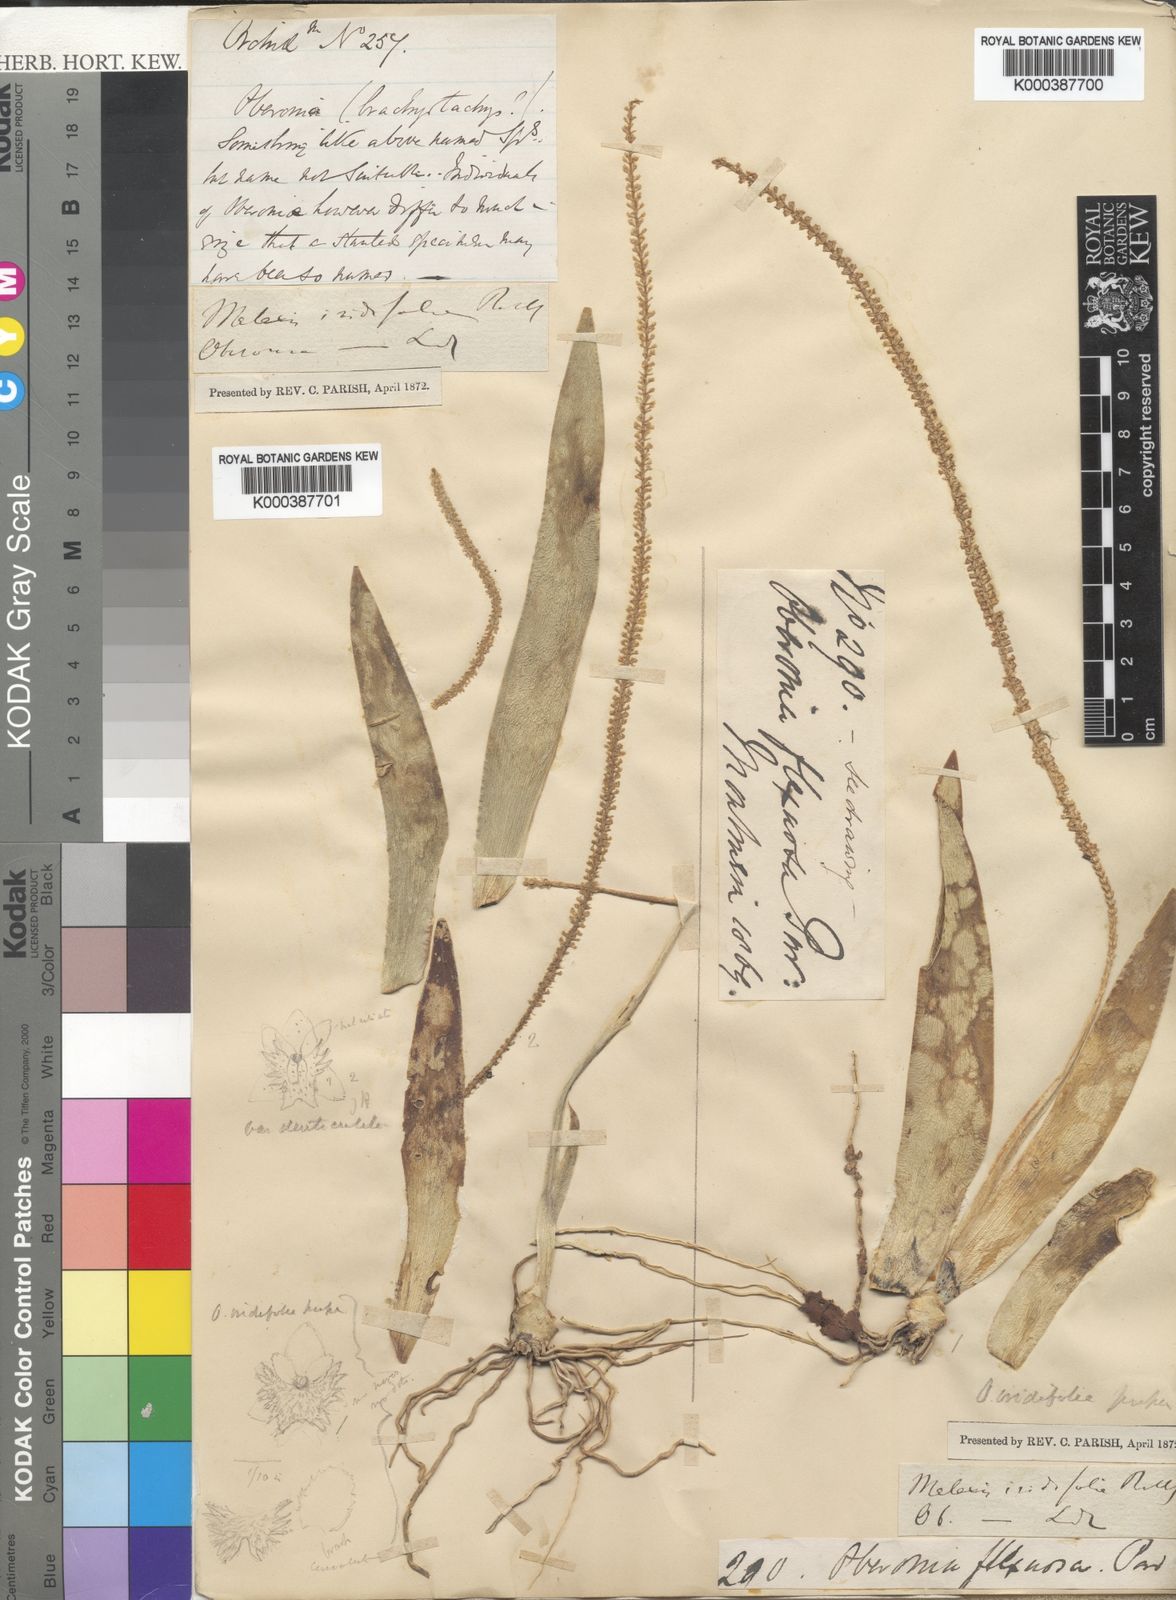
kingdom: Plantae
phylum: Tracheophyta
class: Liliopsida
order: Asparagales
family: Orchidaceae
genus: Oberonia
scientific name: Oberonia
